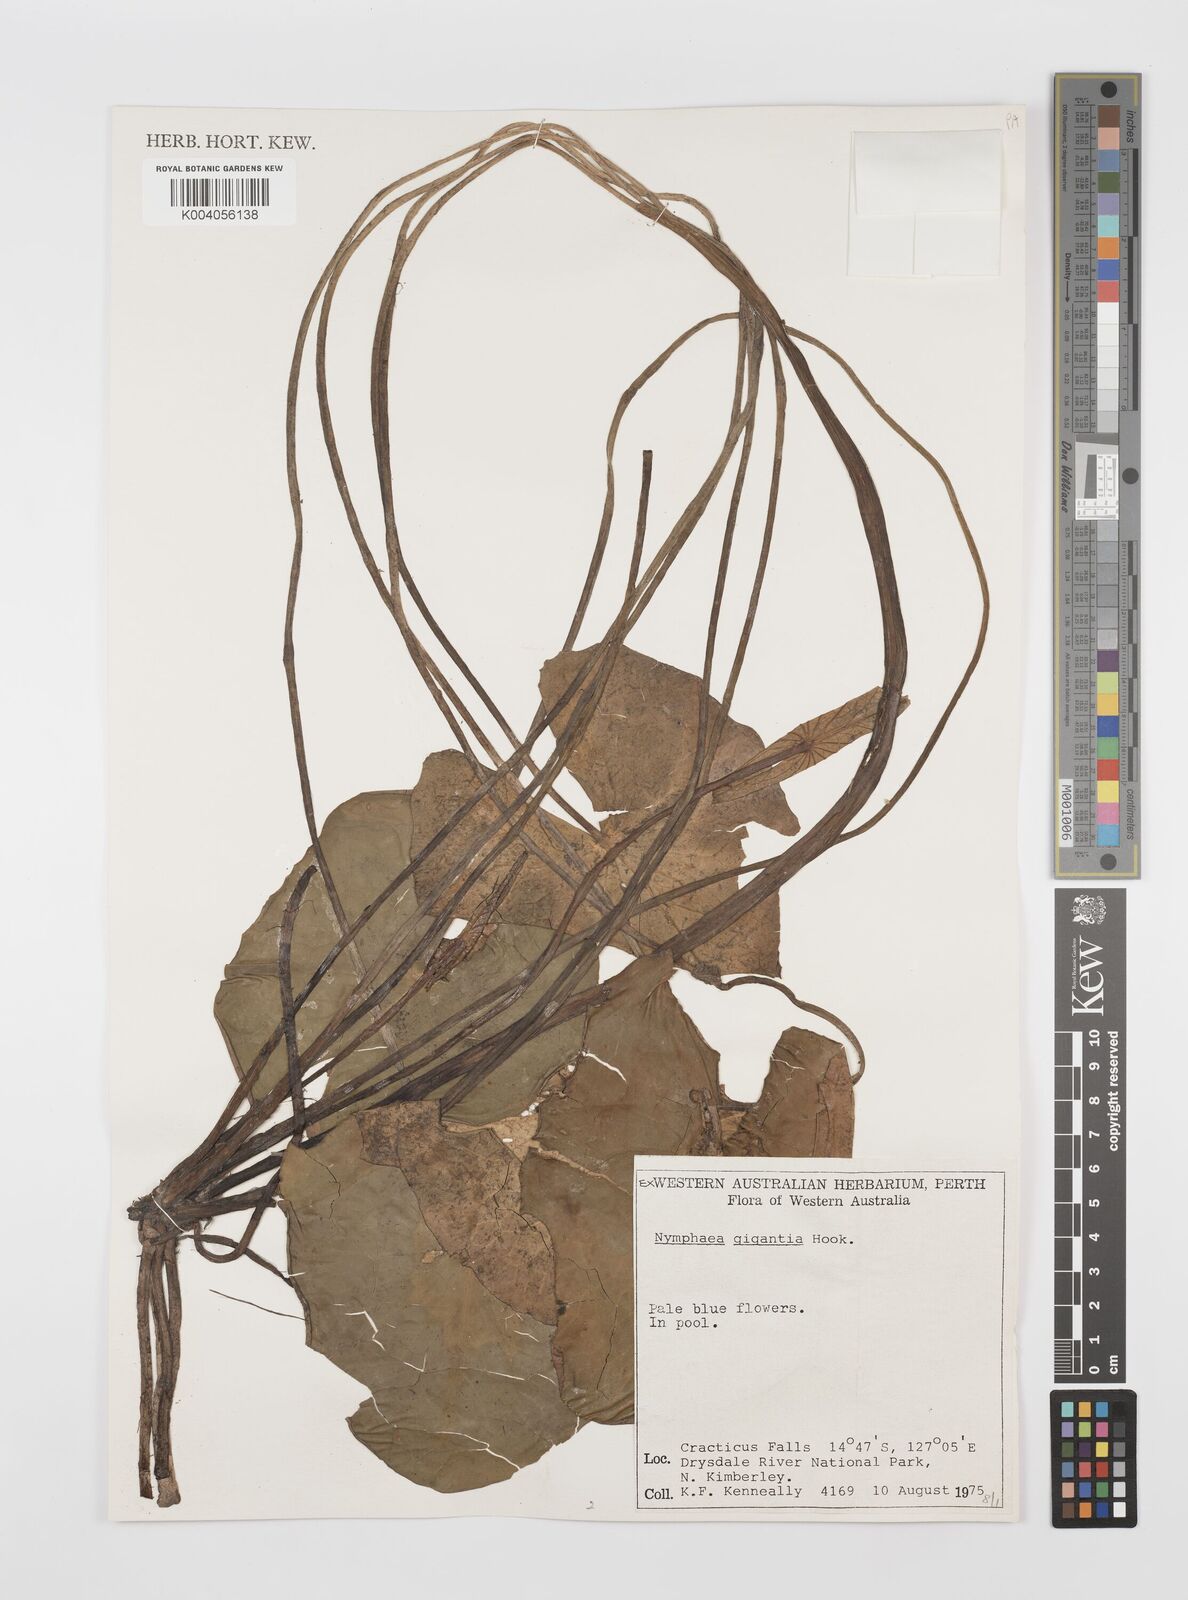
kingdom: Plantae
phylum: Tracheophyta
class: Magnoliopsida
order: Nymphaeales
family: Nymphaeaceae
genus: Nymphaea
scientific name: Nymphaea gigantea
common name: Giant water-lily
